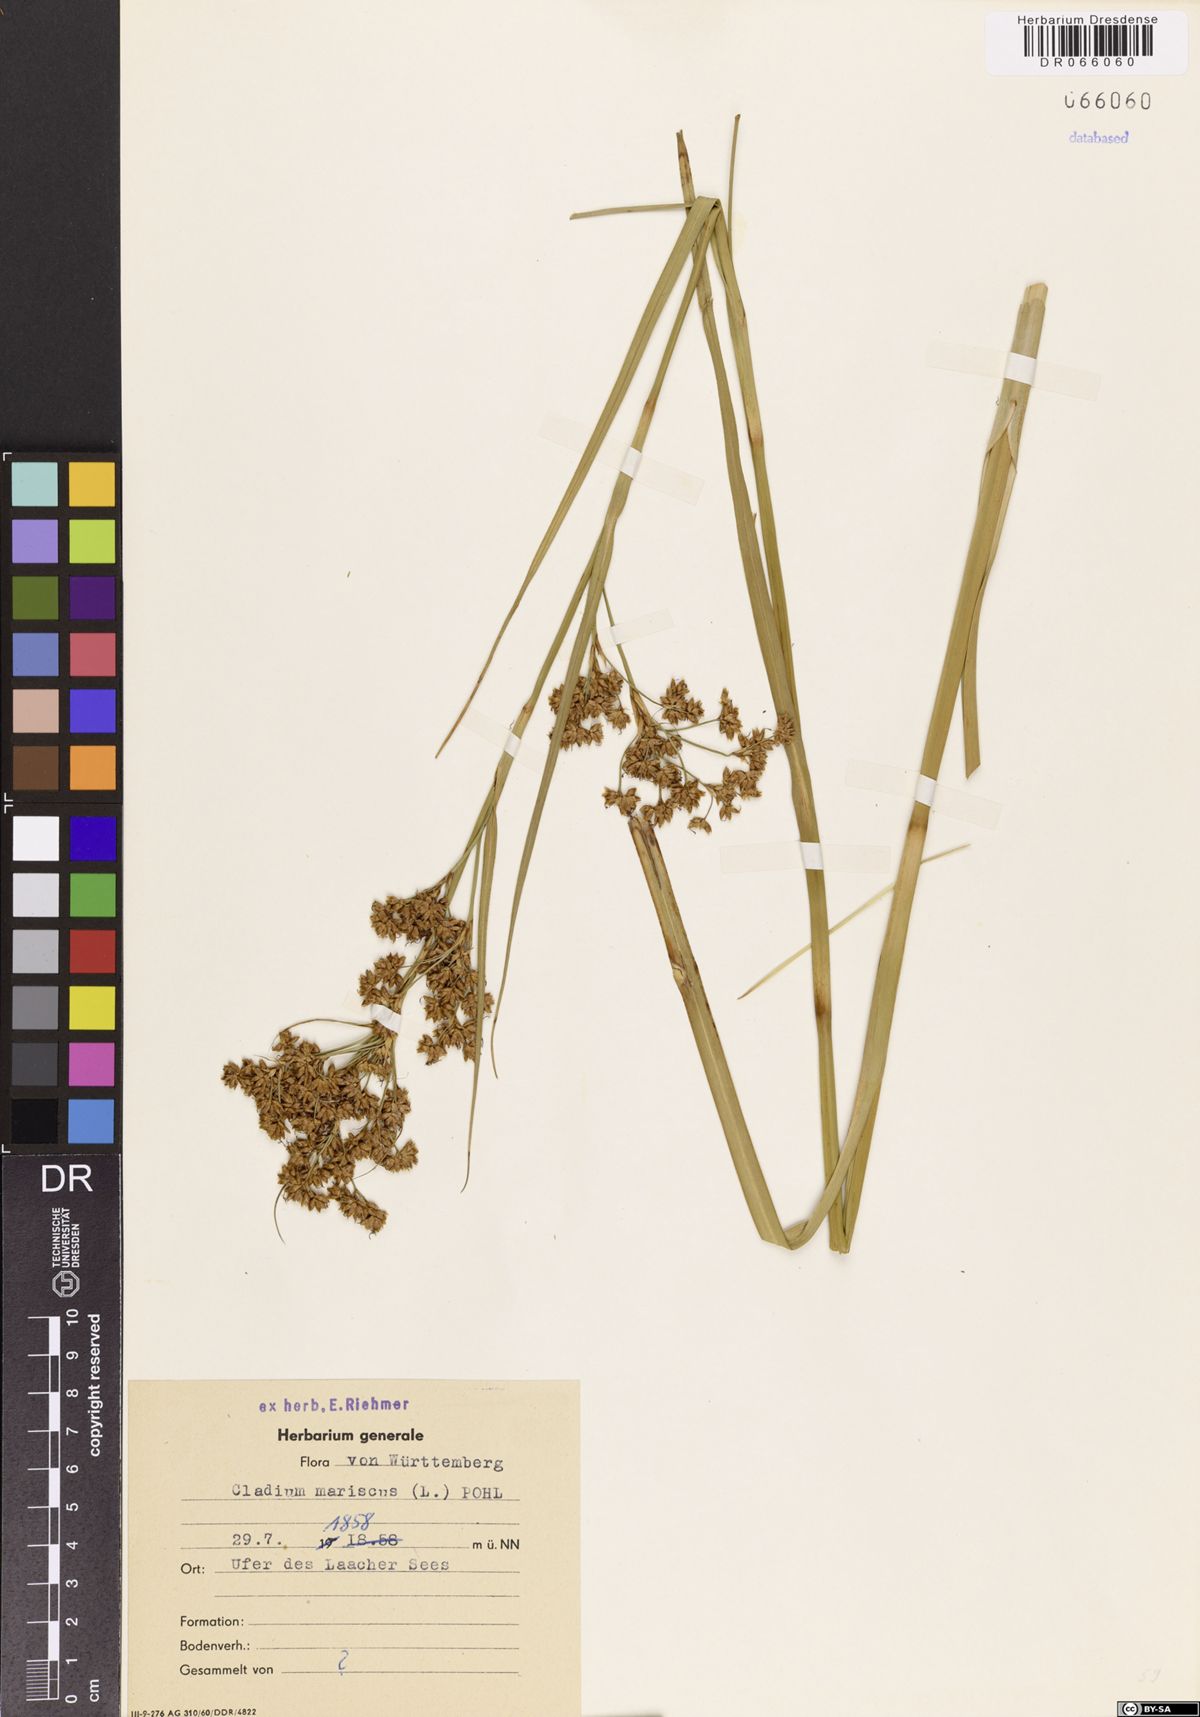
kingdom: Plantae
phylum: Tracheophyta
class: Liliopsida
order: Poales
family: Cyperaceae
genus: Cladium
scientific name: Cladium mariscus
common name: Great fen-sedge
